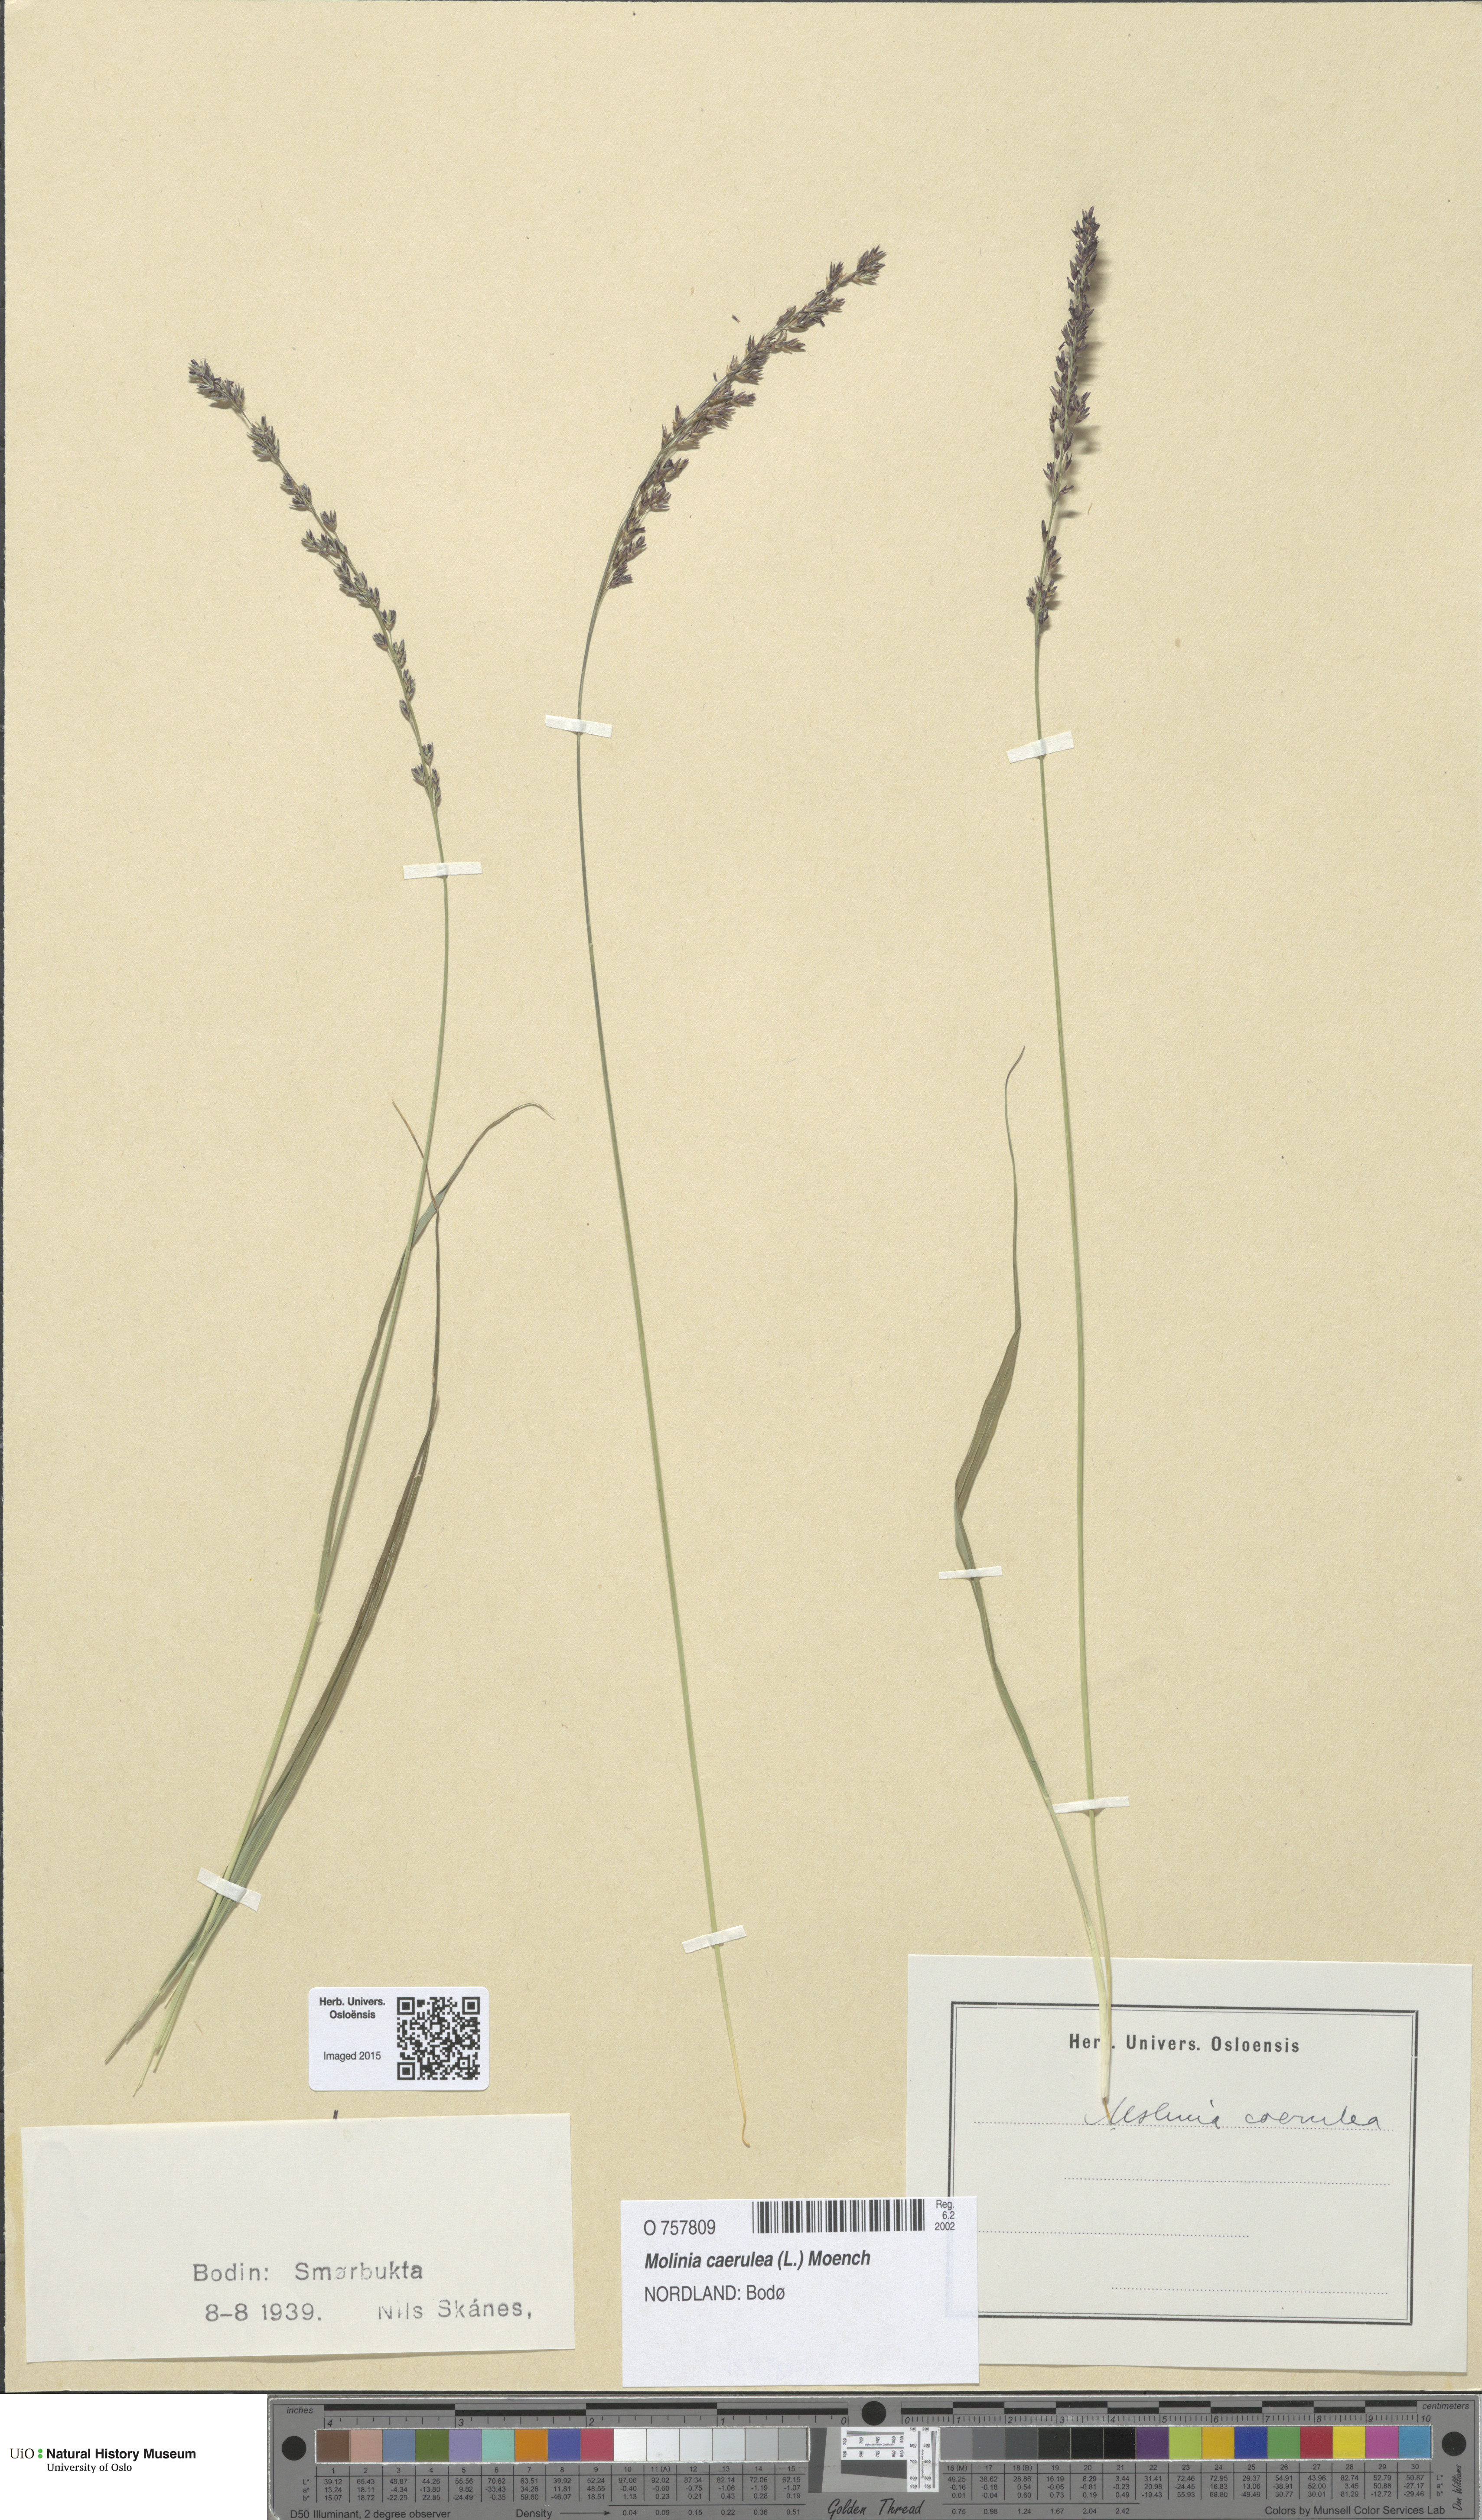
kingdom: Plantae
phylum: Tracheophyta
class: Liliopsida
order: Poales
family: Poaceae
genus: Molinia
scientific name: Molinia caerulea
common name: Purple moor-grass
